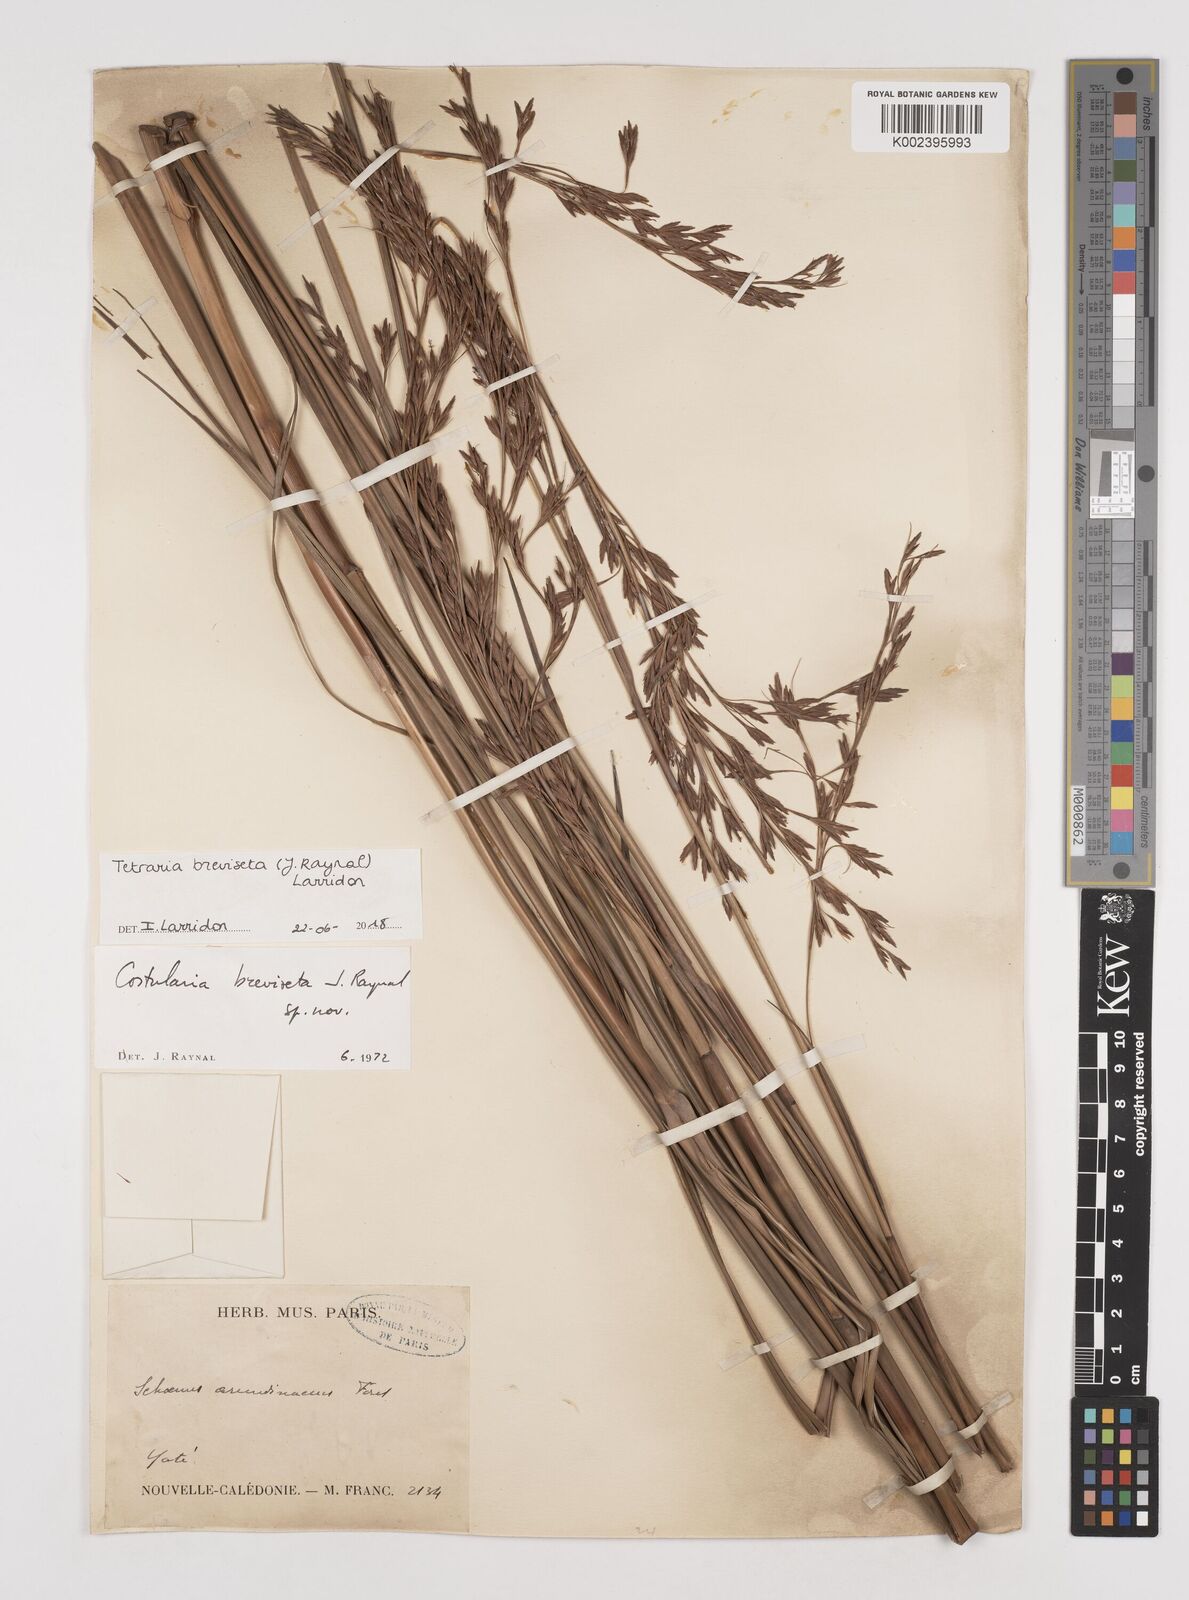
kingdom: Plantae
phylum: Tracheophyta
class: Liliopsida
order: Poales
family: Cyperaceae
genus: Tetraria
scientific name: Tetraria breviseta
